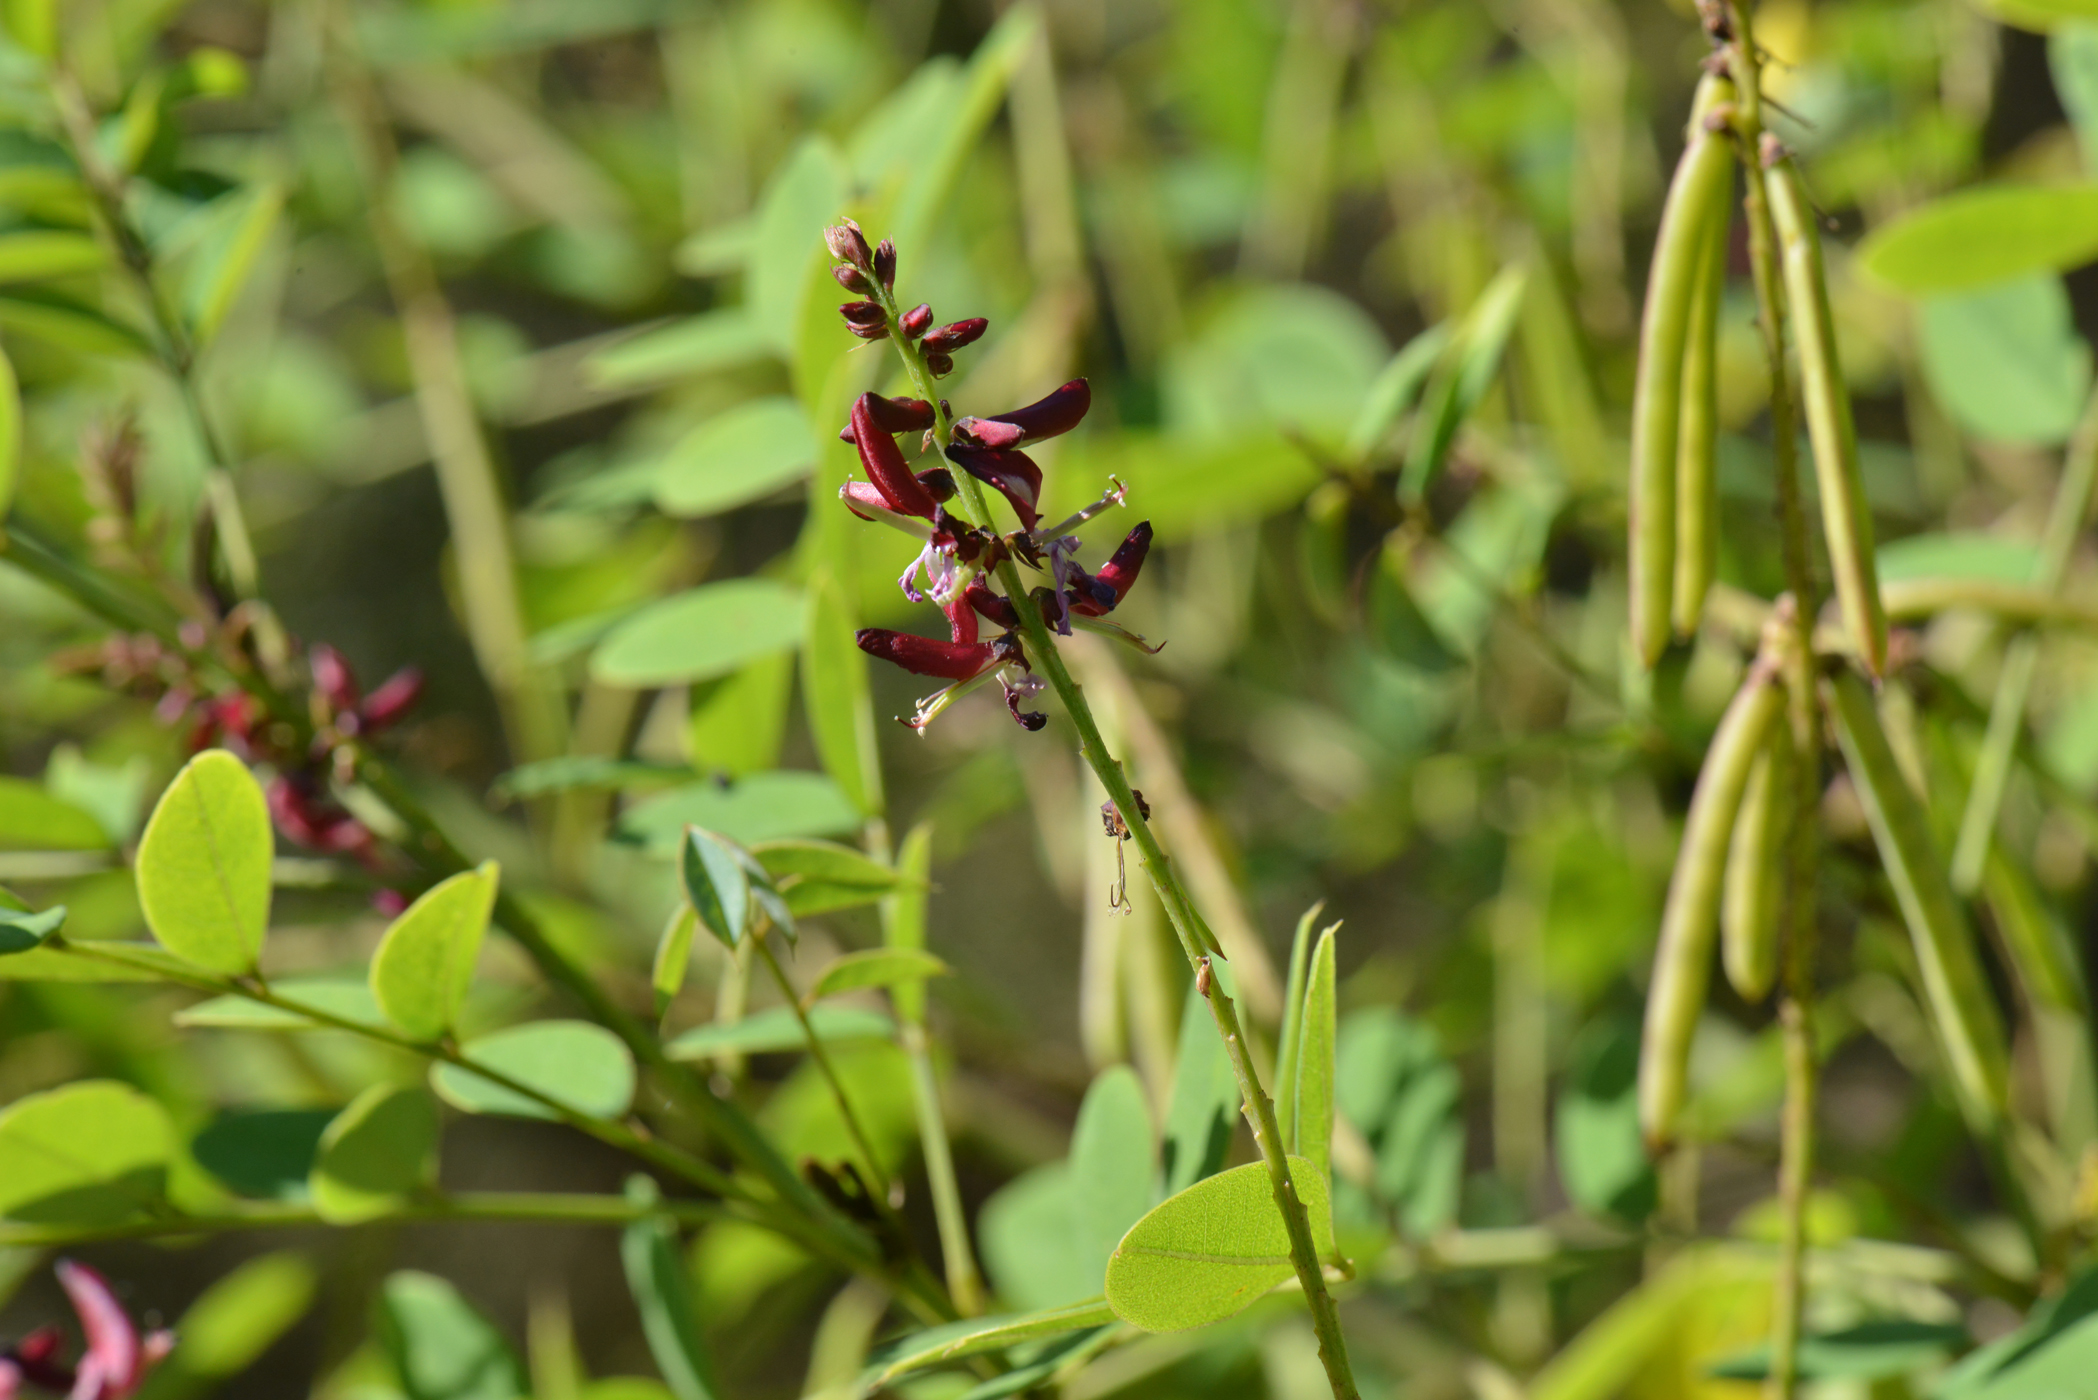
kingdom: Plantae
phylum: Tracheophyta
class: Magnoliopsida
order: Fabales
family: Fabaceae
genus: Indigofera
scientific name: Indigofera atropurpurea
